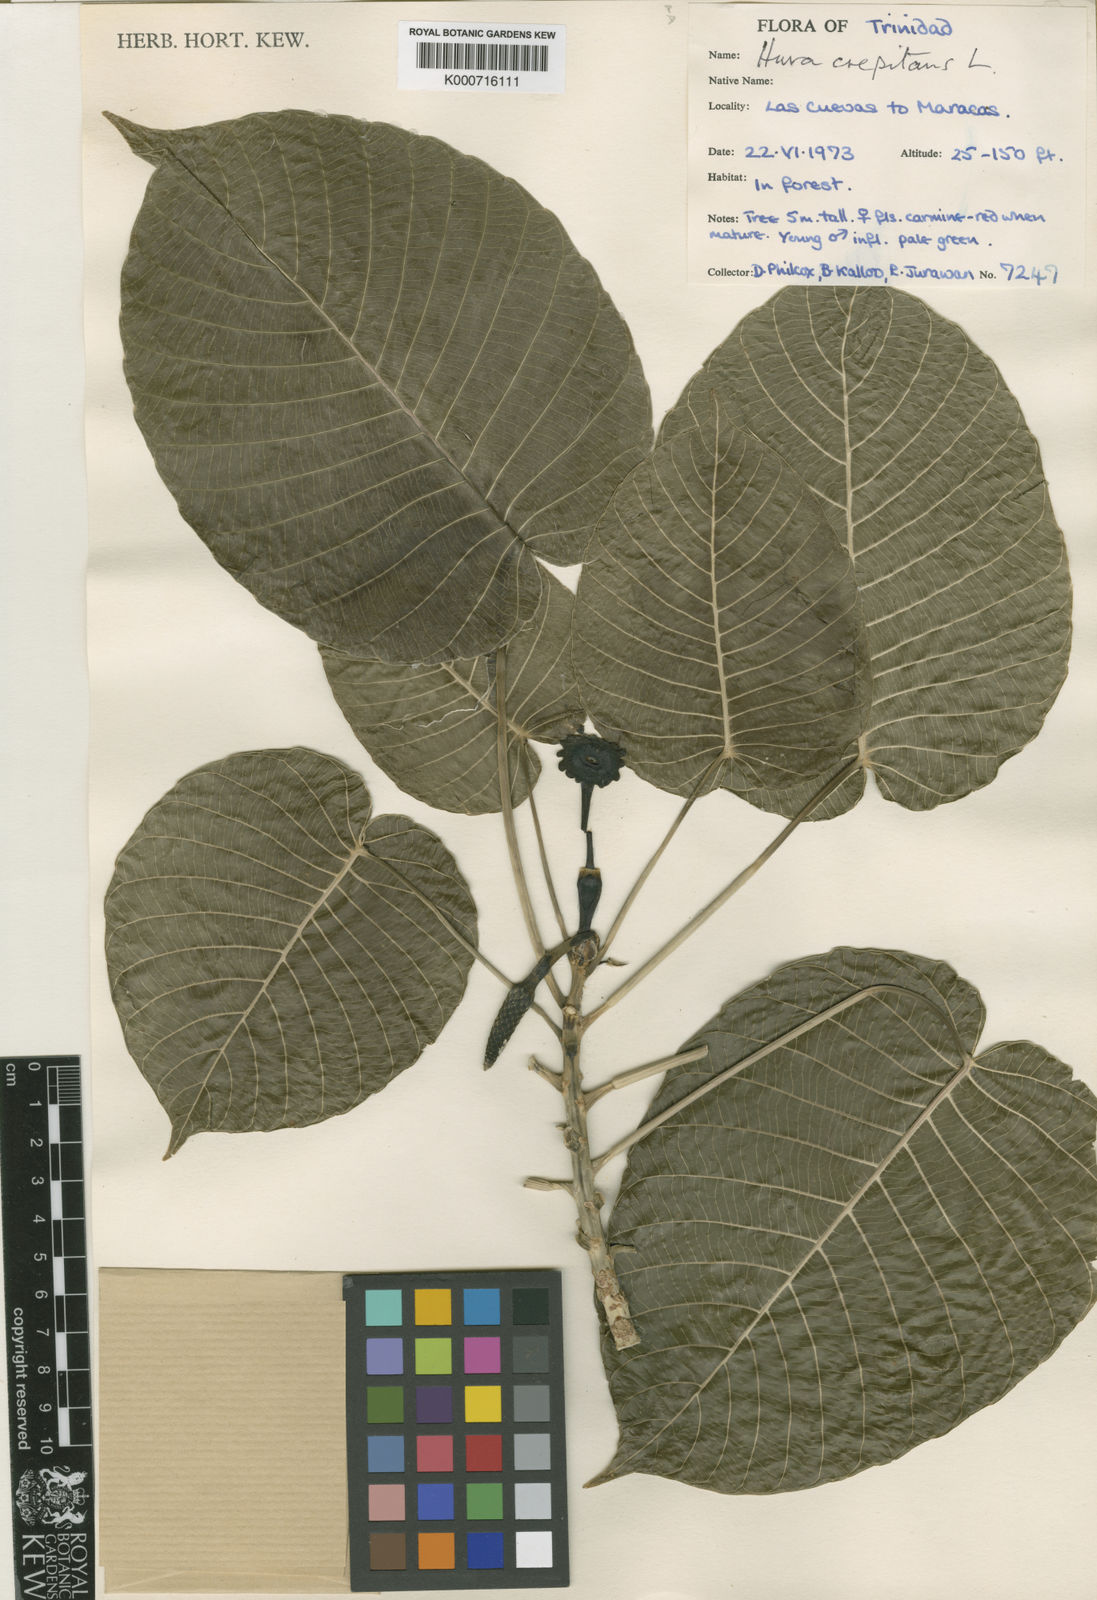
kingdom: Plantae
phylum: Tracheophyta
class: Magnoliopsida
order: Malpighiales
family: Euphorbiaceae
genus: Hura
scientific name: Hura crepitans
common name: Sandboxtree
